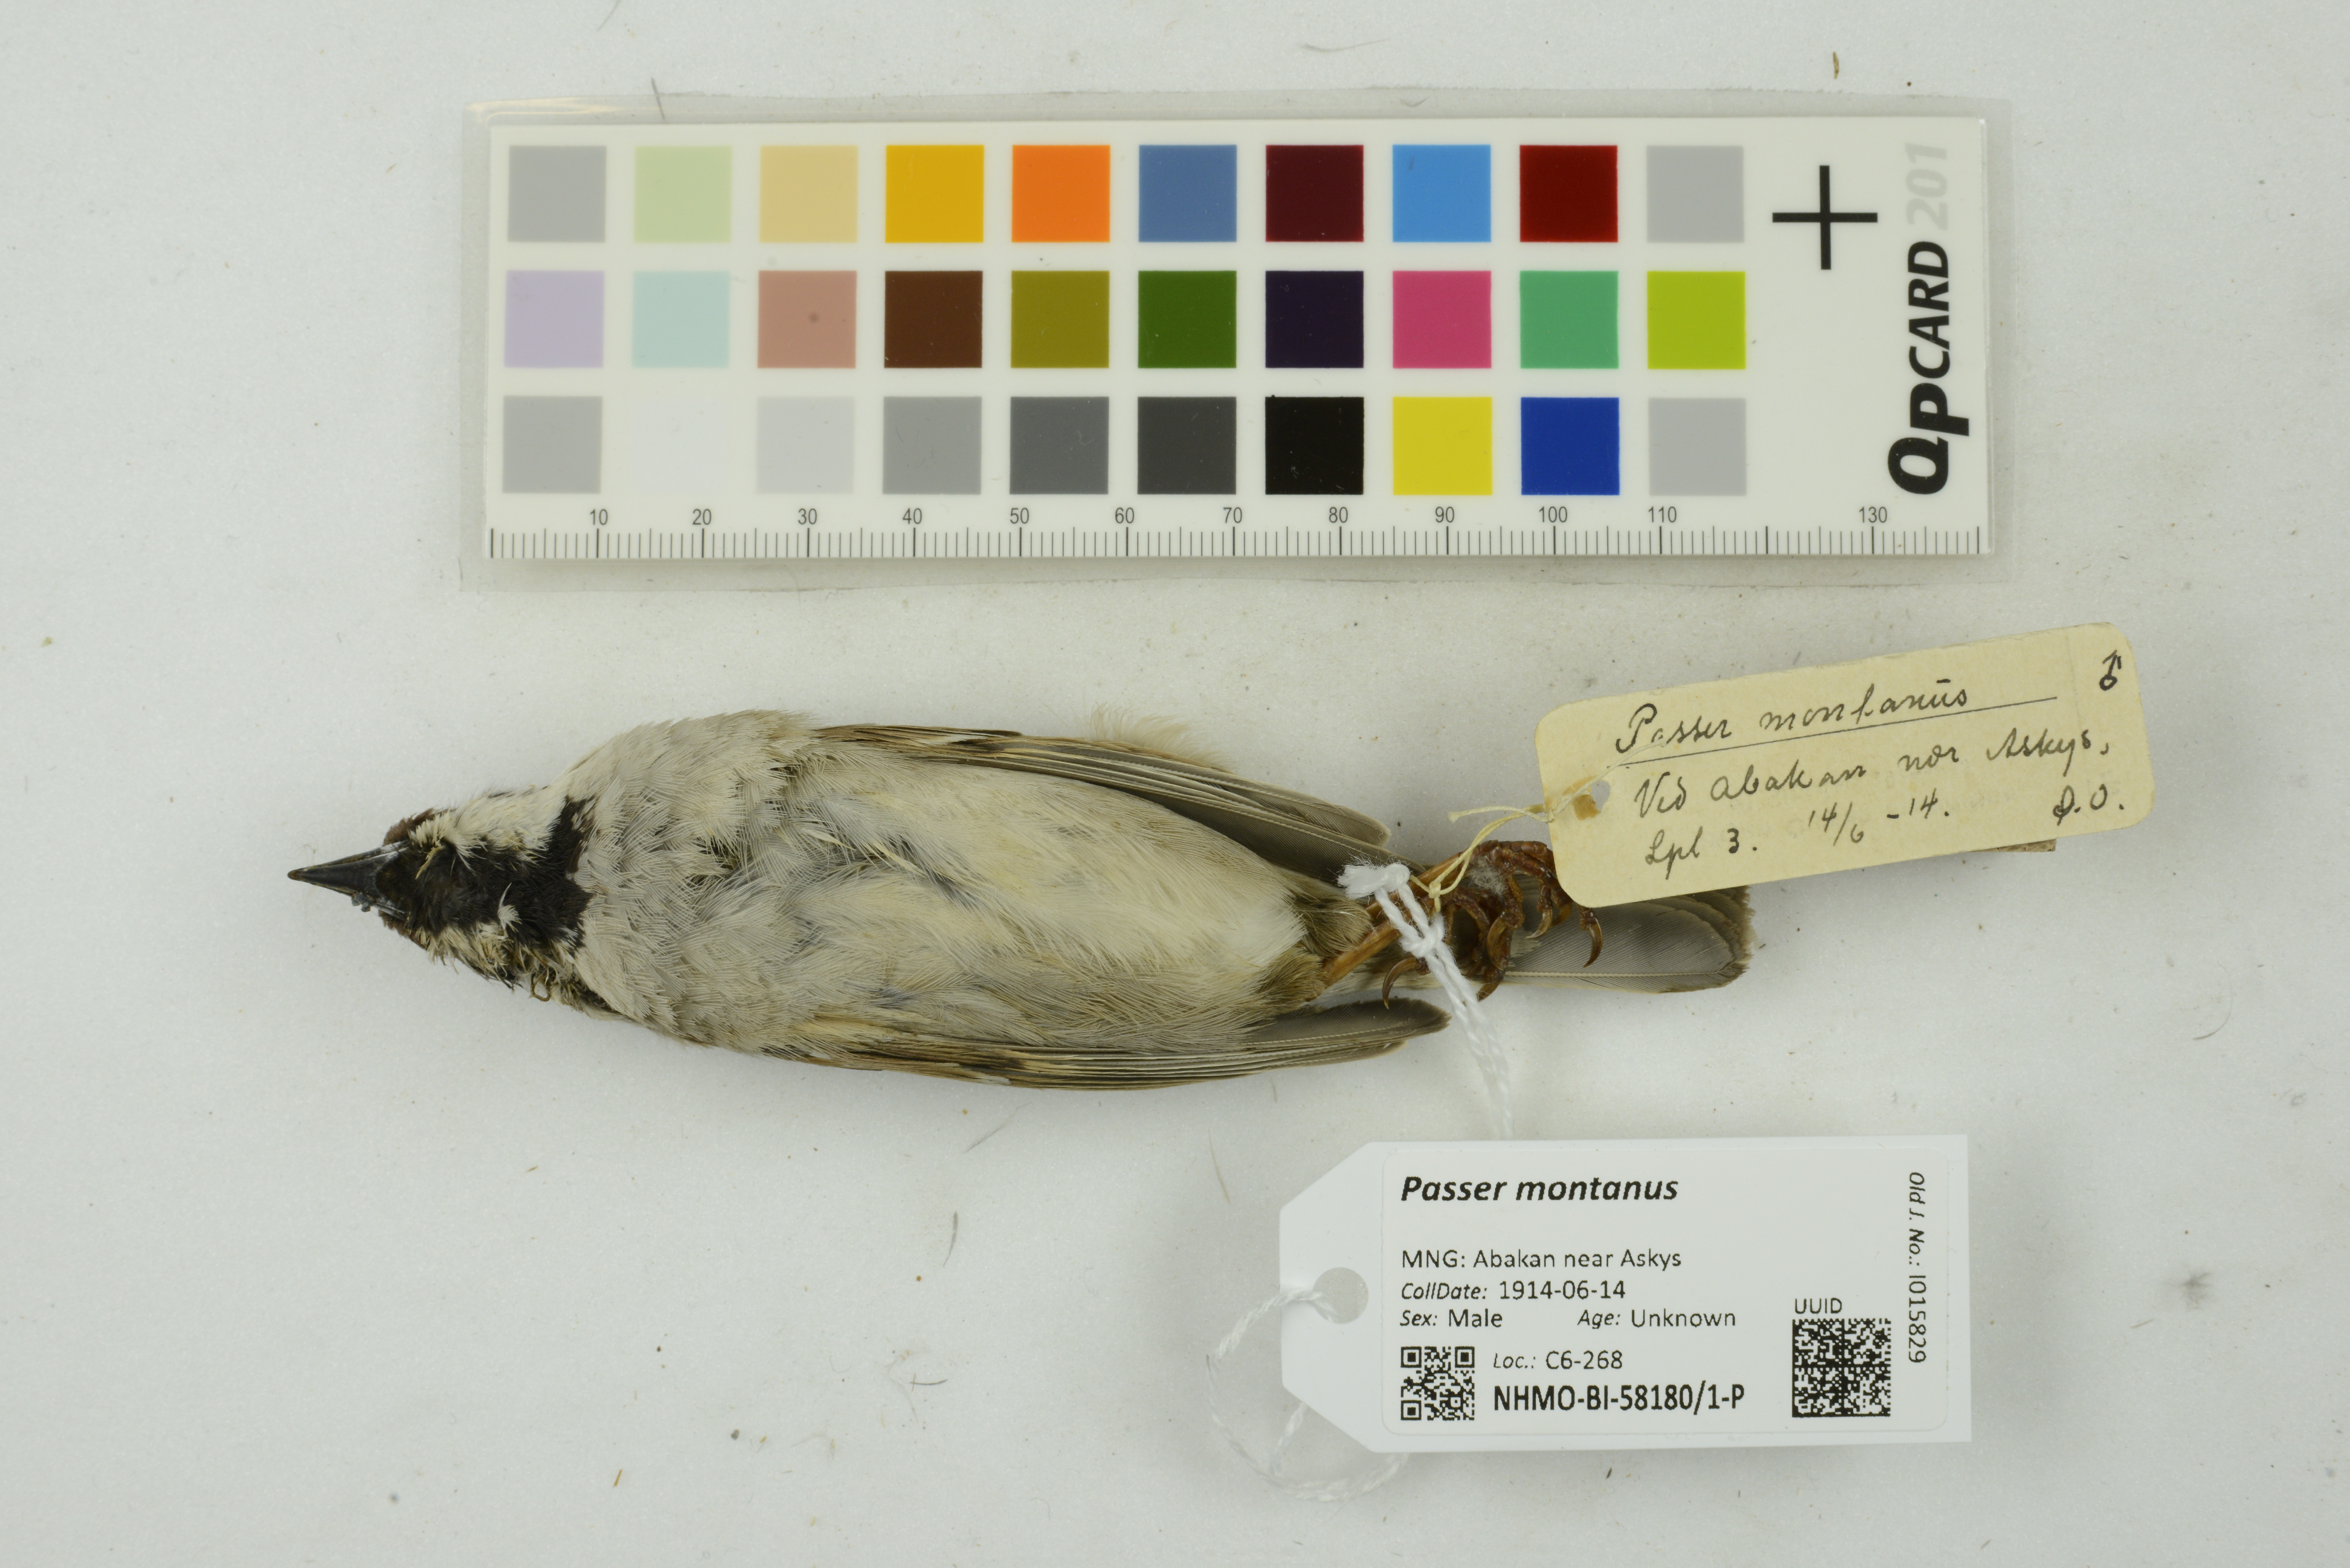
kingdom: Animalia
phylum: Chordata
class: Aves
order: Passeriformes
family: Passeridae
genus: Passer
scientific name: Passer montanus
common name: Eurasian tree sparrow
